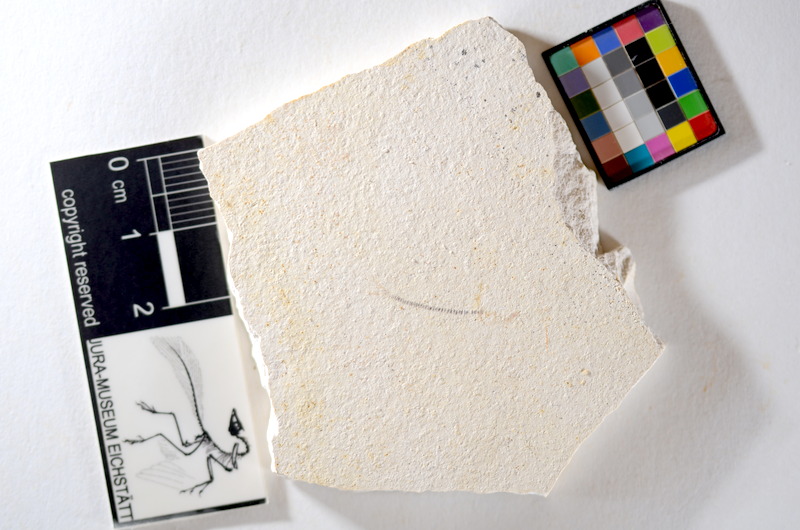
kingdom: Animalia
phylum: Chordata
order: Salmoniformes
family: Orthogonikleithridae
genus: Orthogonikleithrus
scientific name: Orthogonikleithrus hoelli
